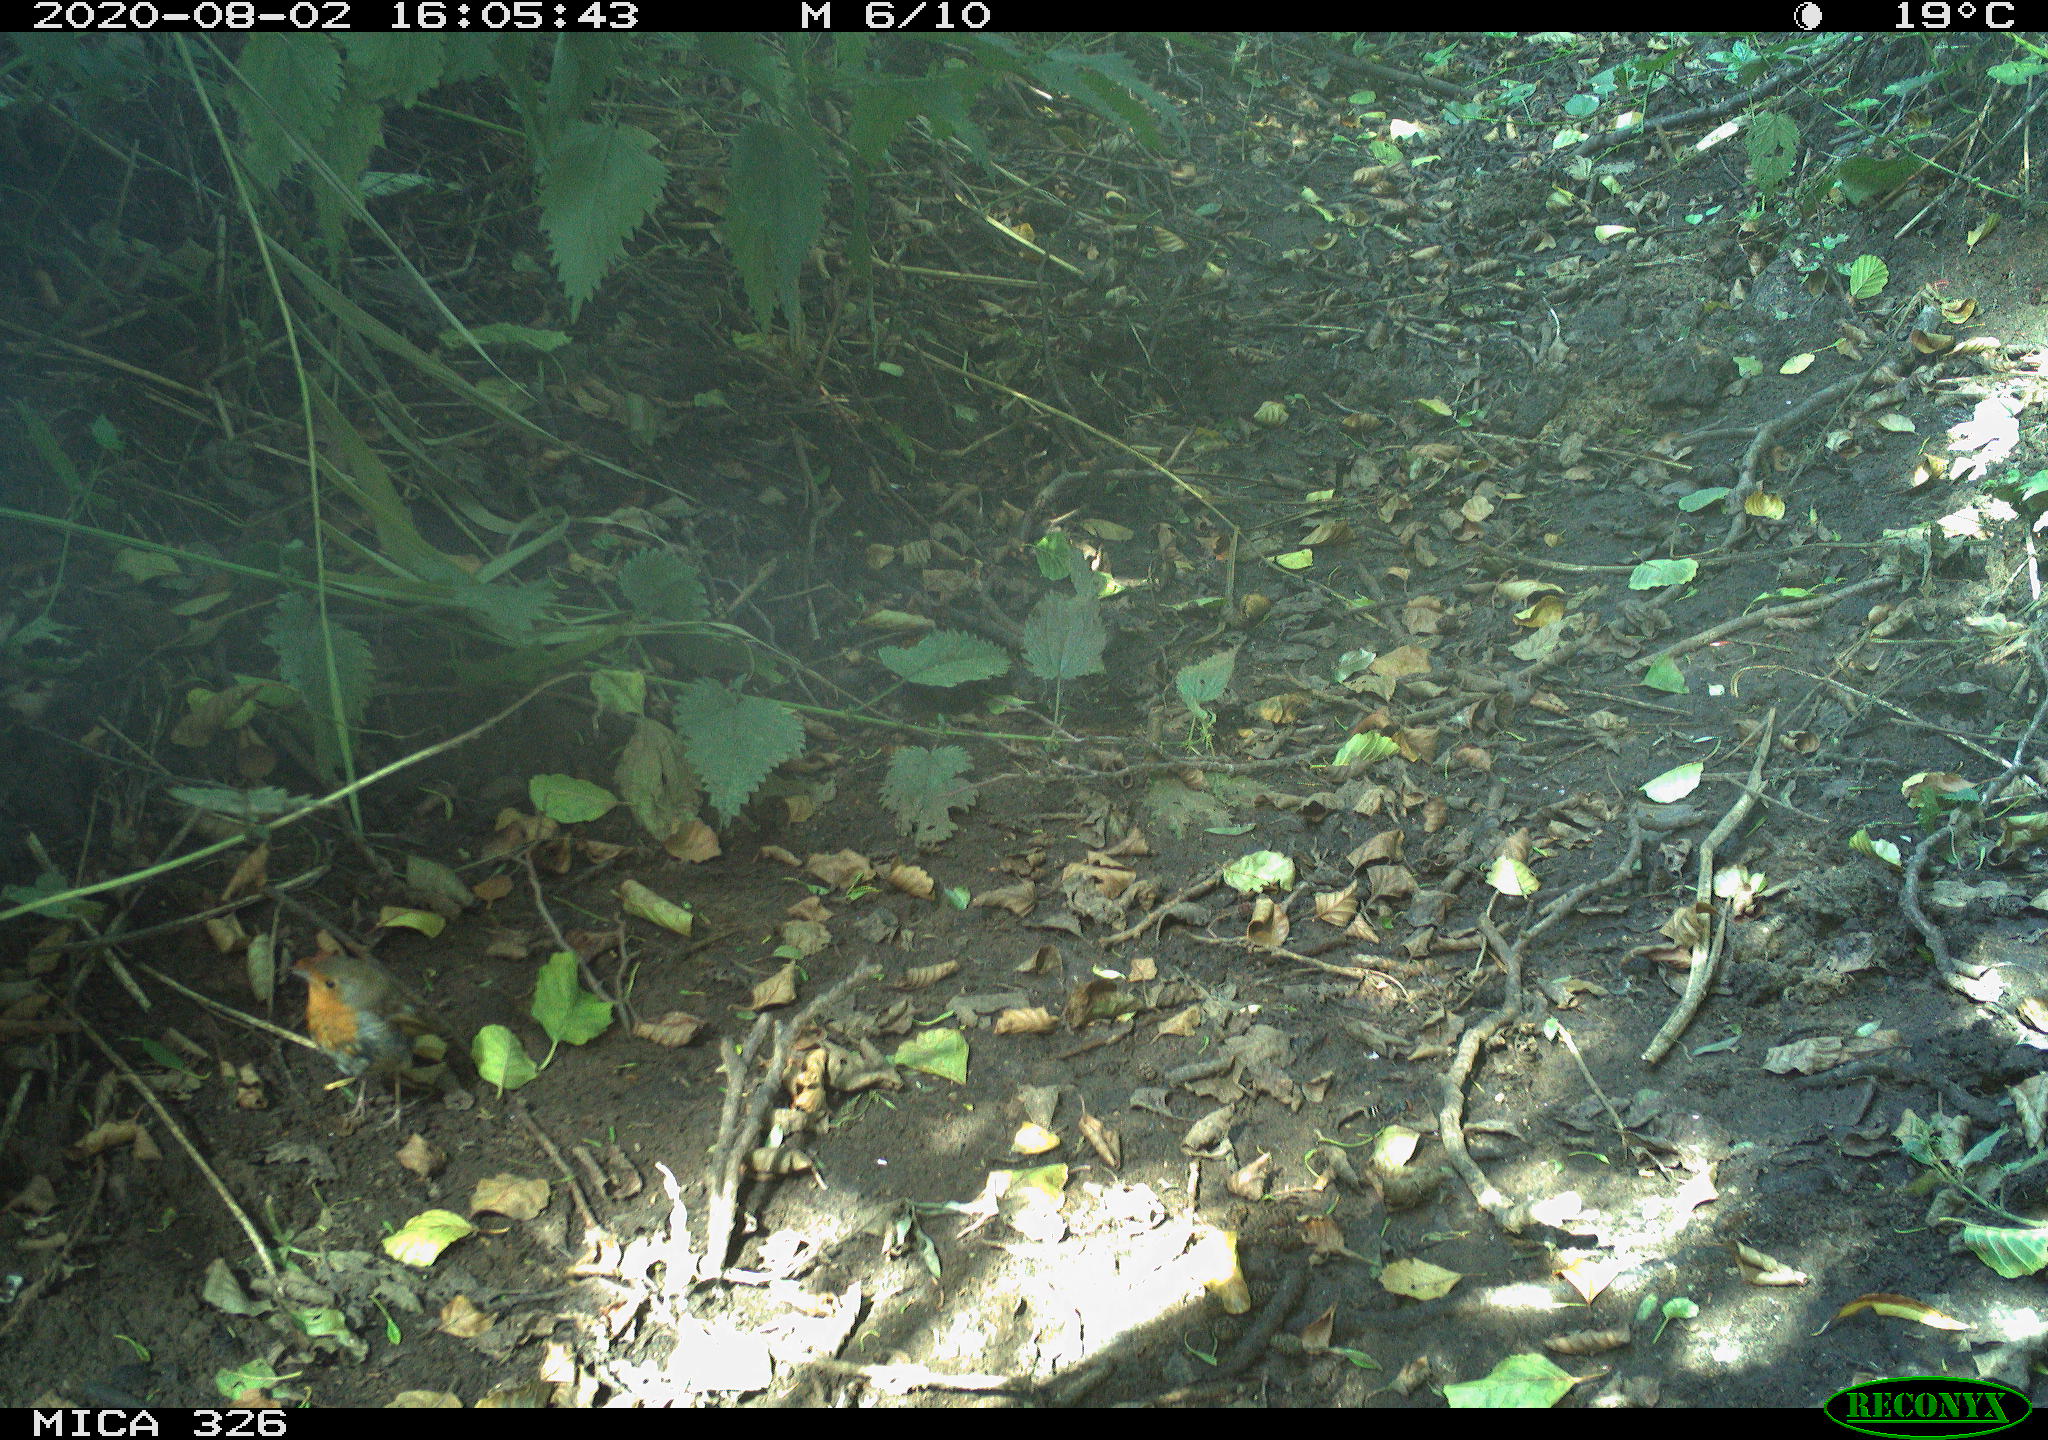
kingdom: Animalia
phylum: Chordata
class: Aves
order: Passeriformes
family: Muscicapidae
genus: Erithacus
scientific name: Erithacus rubecula
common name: European robin
